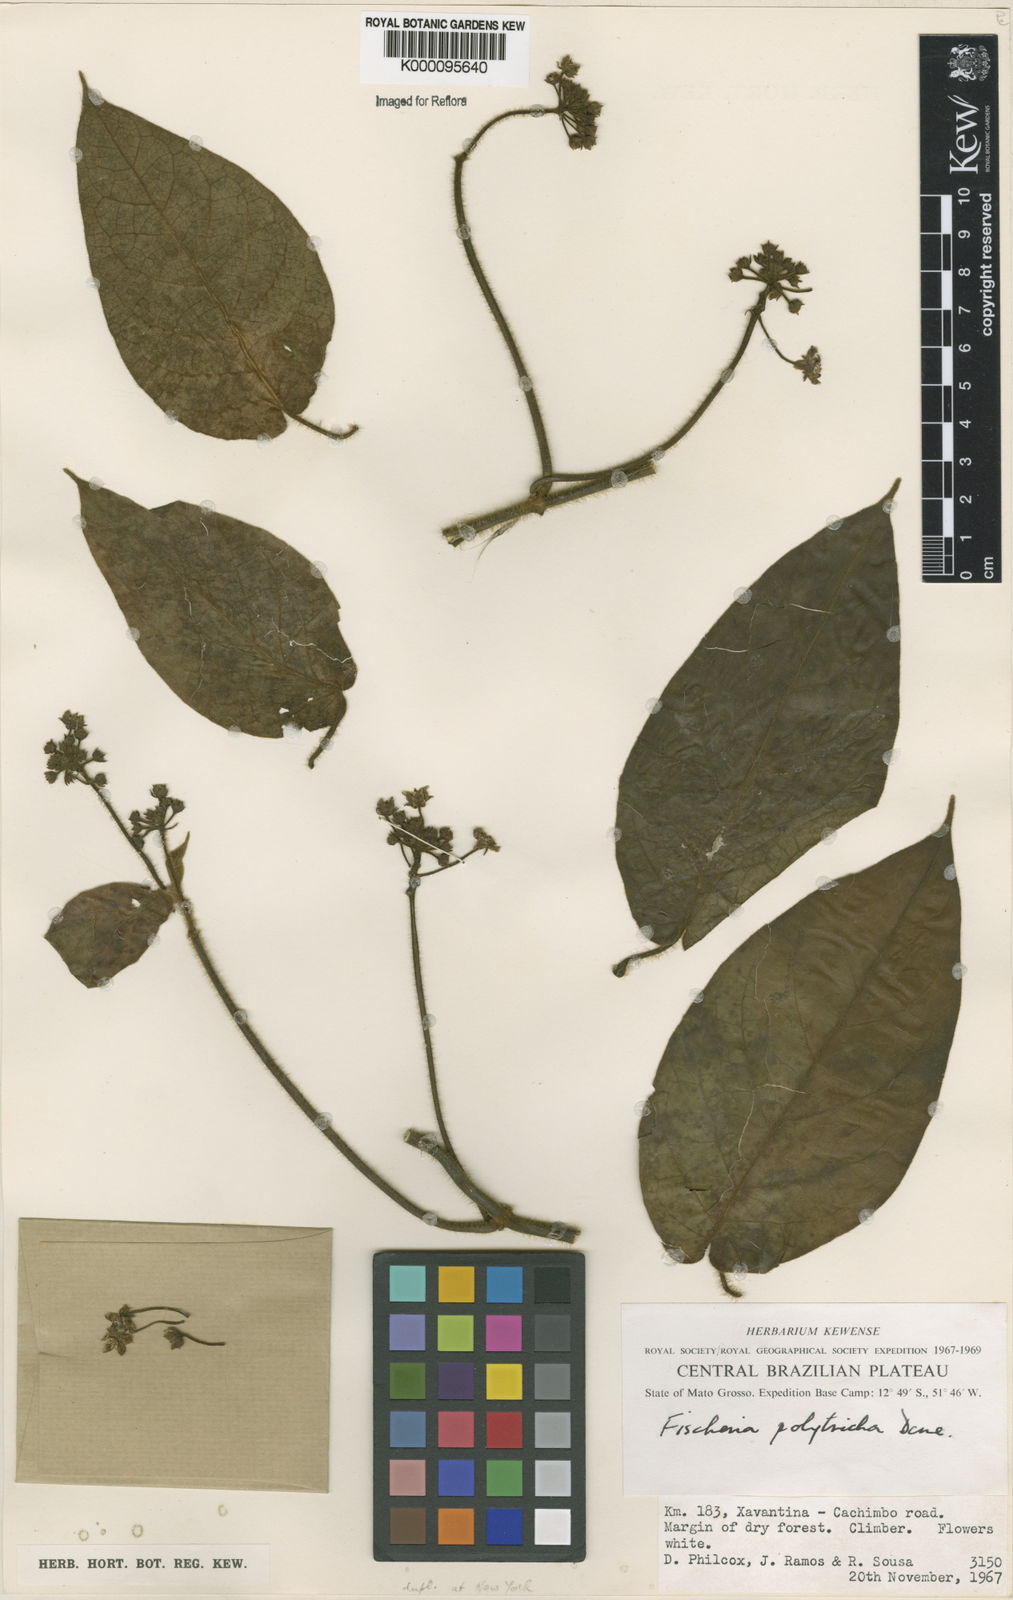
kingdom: Plantae
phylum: Tracheophyta
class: Magnoliopsida
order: Gentianales
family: Apocynaceae
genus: Fischeria
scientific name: Fischeria polytricha
